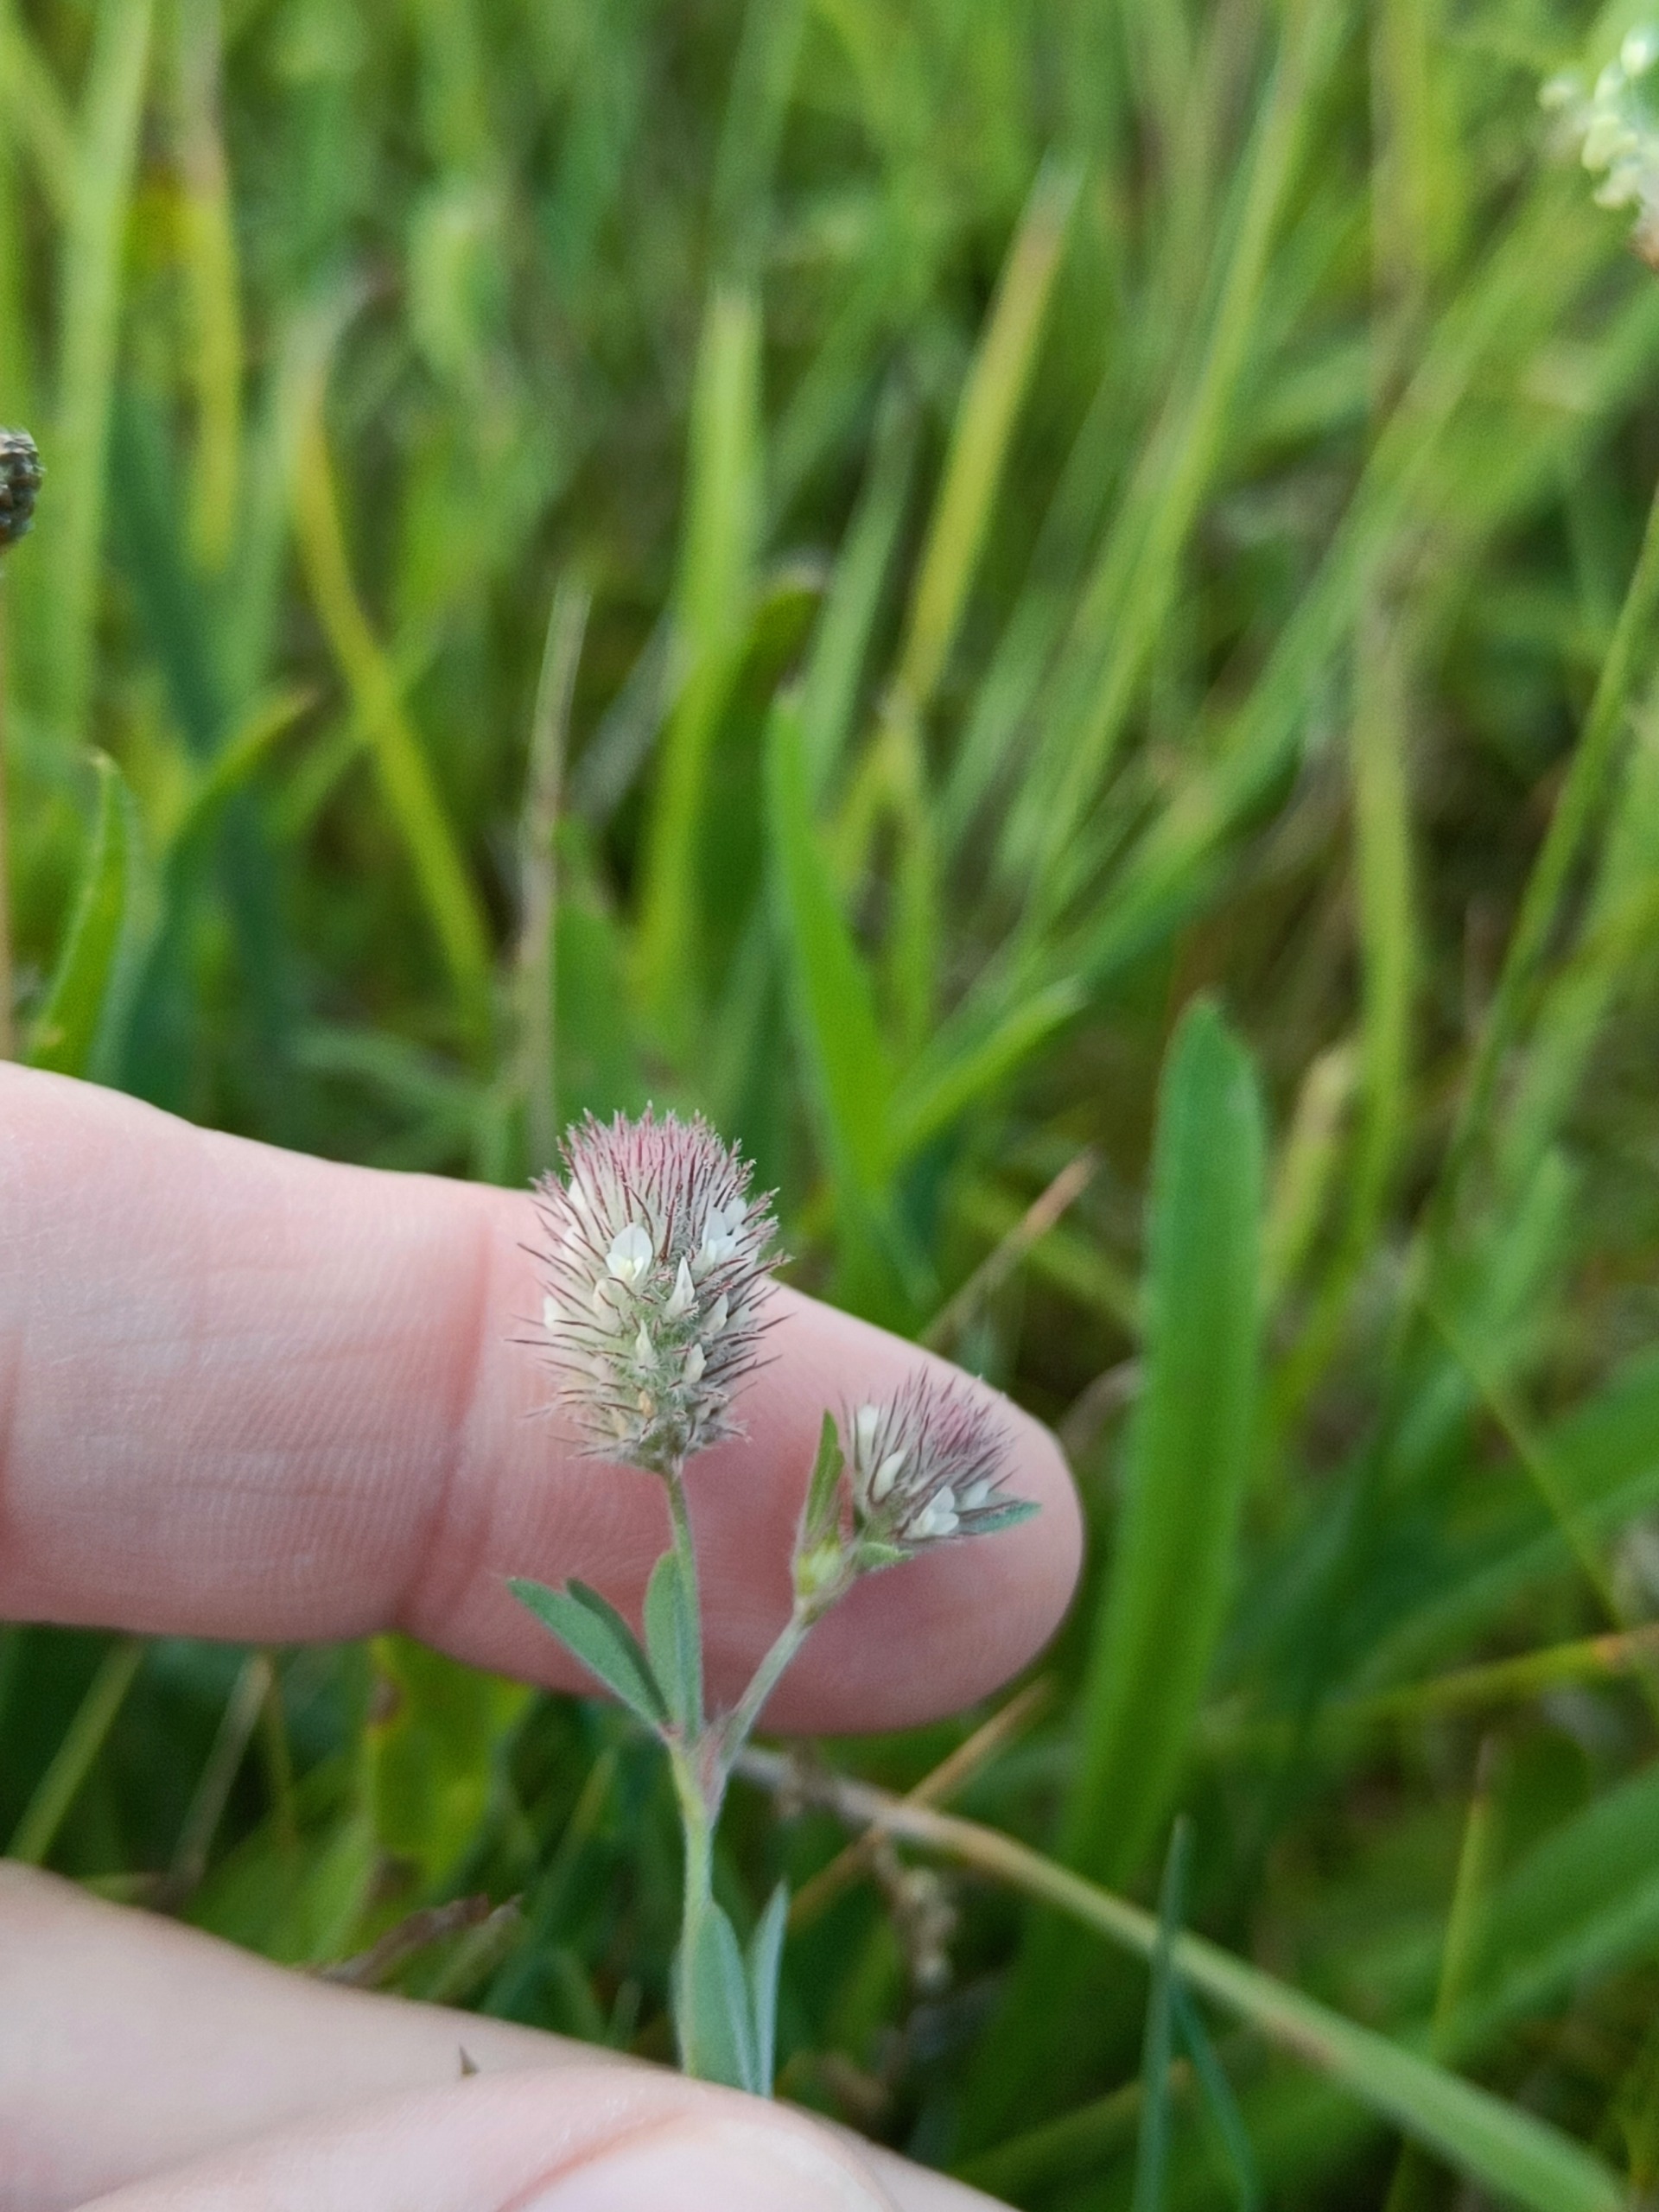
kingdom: Plantae
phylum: Tracheophyta
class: Magnoliopsida
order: Fabales
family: Fabaceae
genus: Trifolium
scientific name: Trifolium arvense
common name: Hare-kløver
